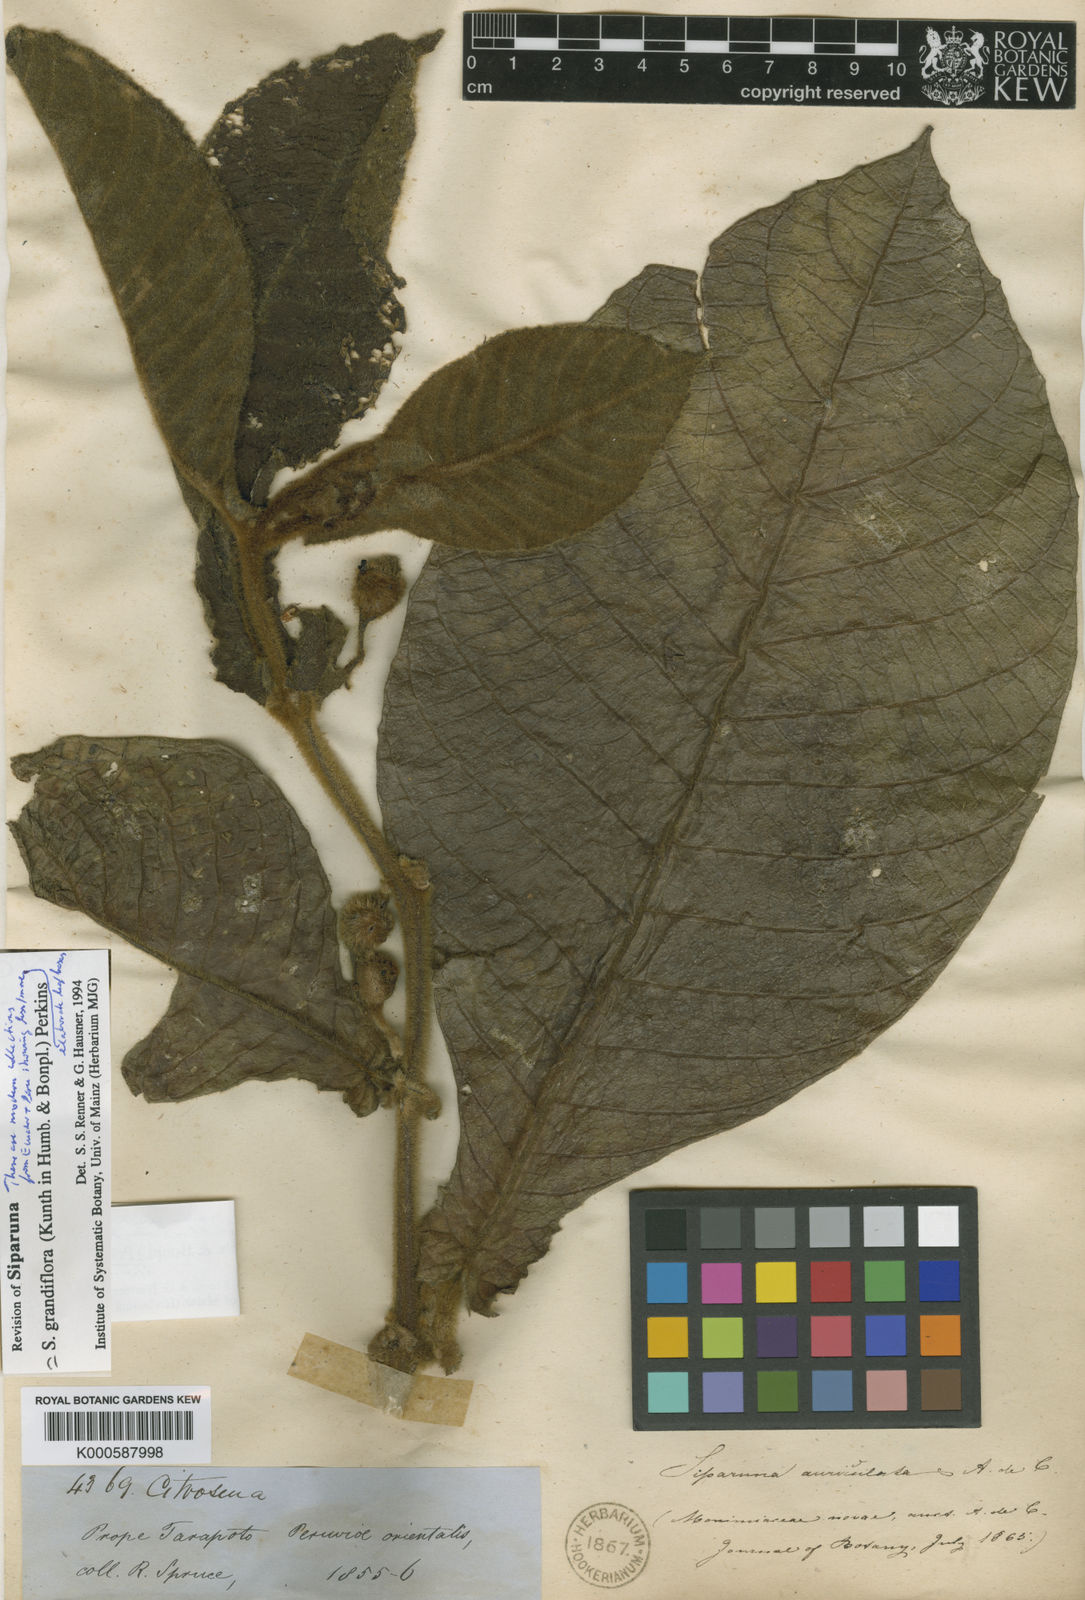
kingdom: Plantae
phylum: Tracheophyta
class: Magnoliopsida
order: Laurales
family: Siparunaceae
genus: Siparuna
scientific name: Siparuna grandiflora
